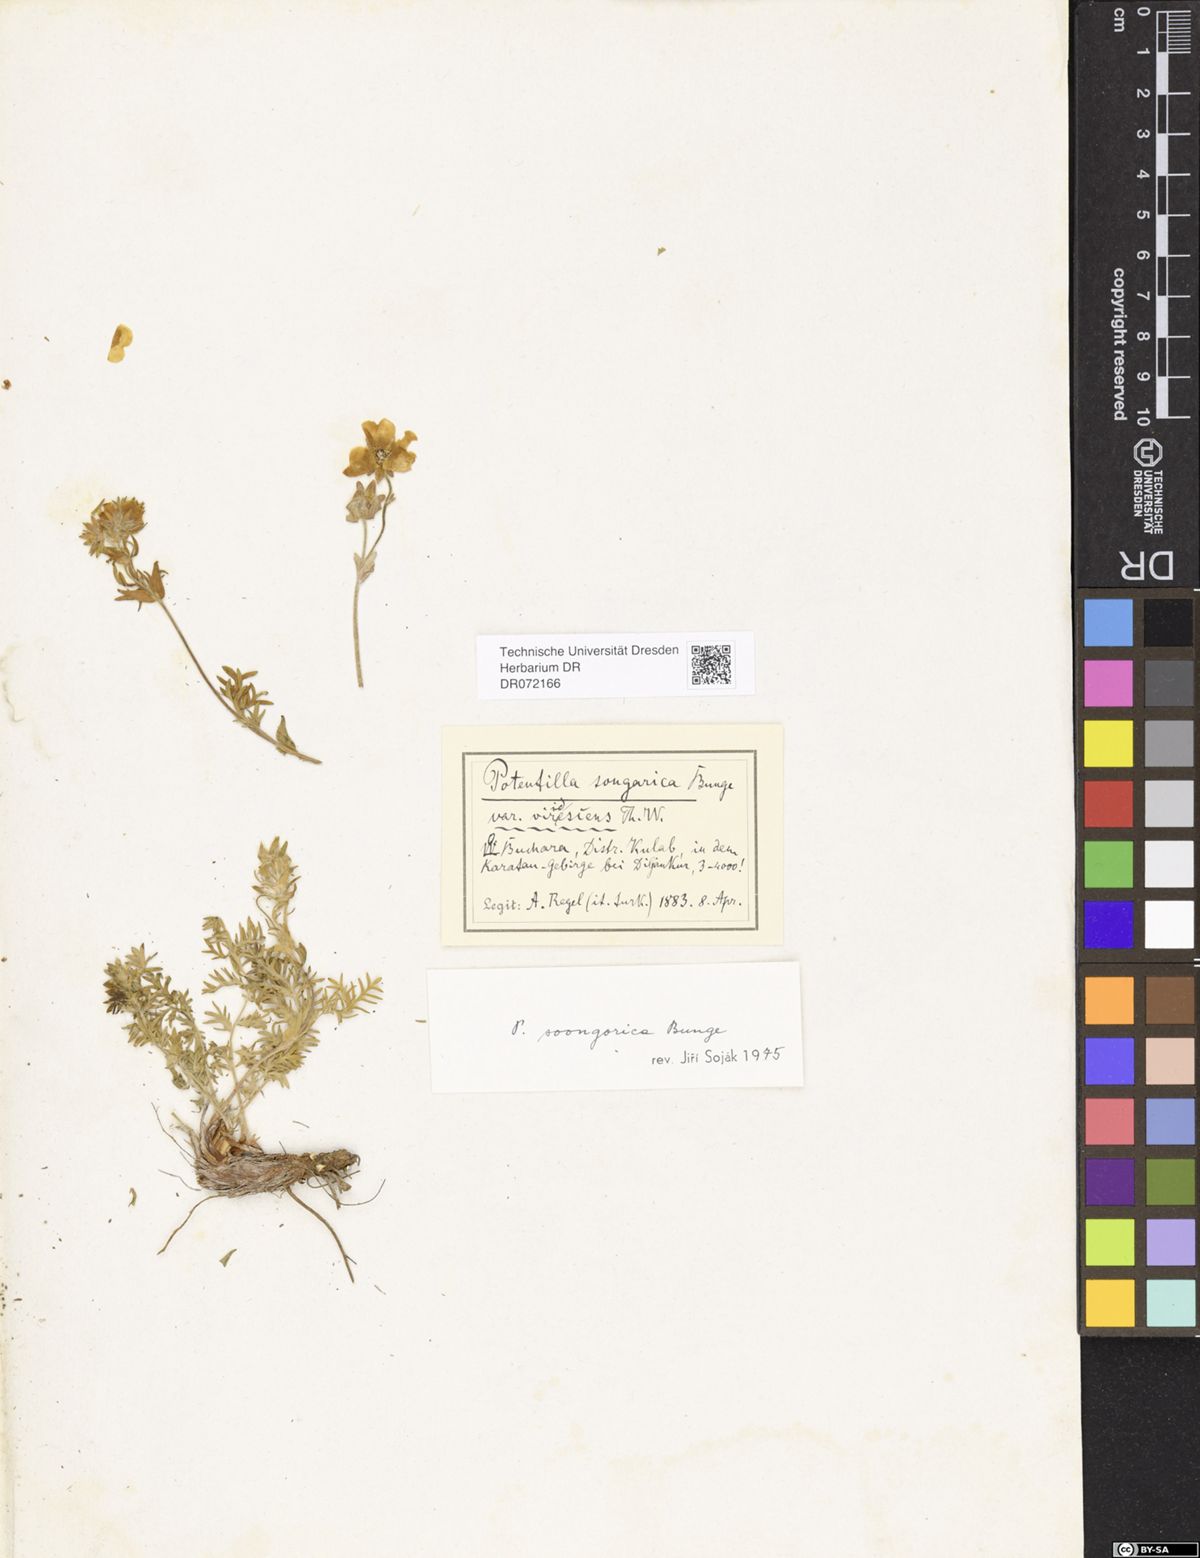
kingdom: Plantae
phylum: Tracheophyta
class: Magnoliopsida
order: Rosales
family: Rosaceae
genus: Potentilla
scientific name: Potentilla soongorica
